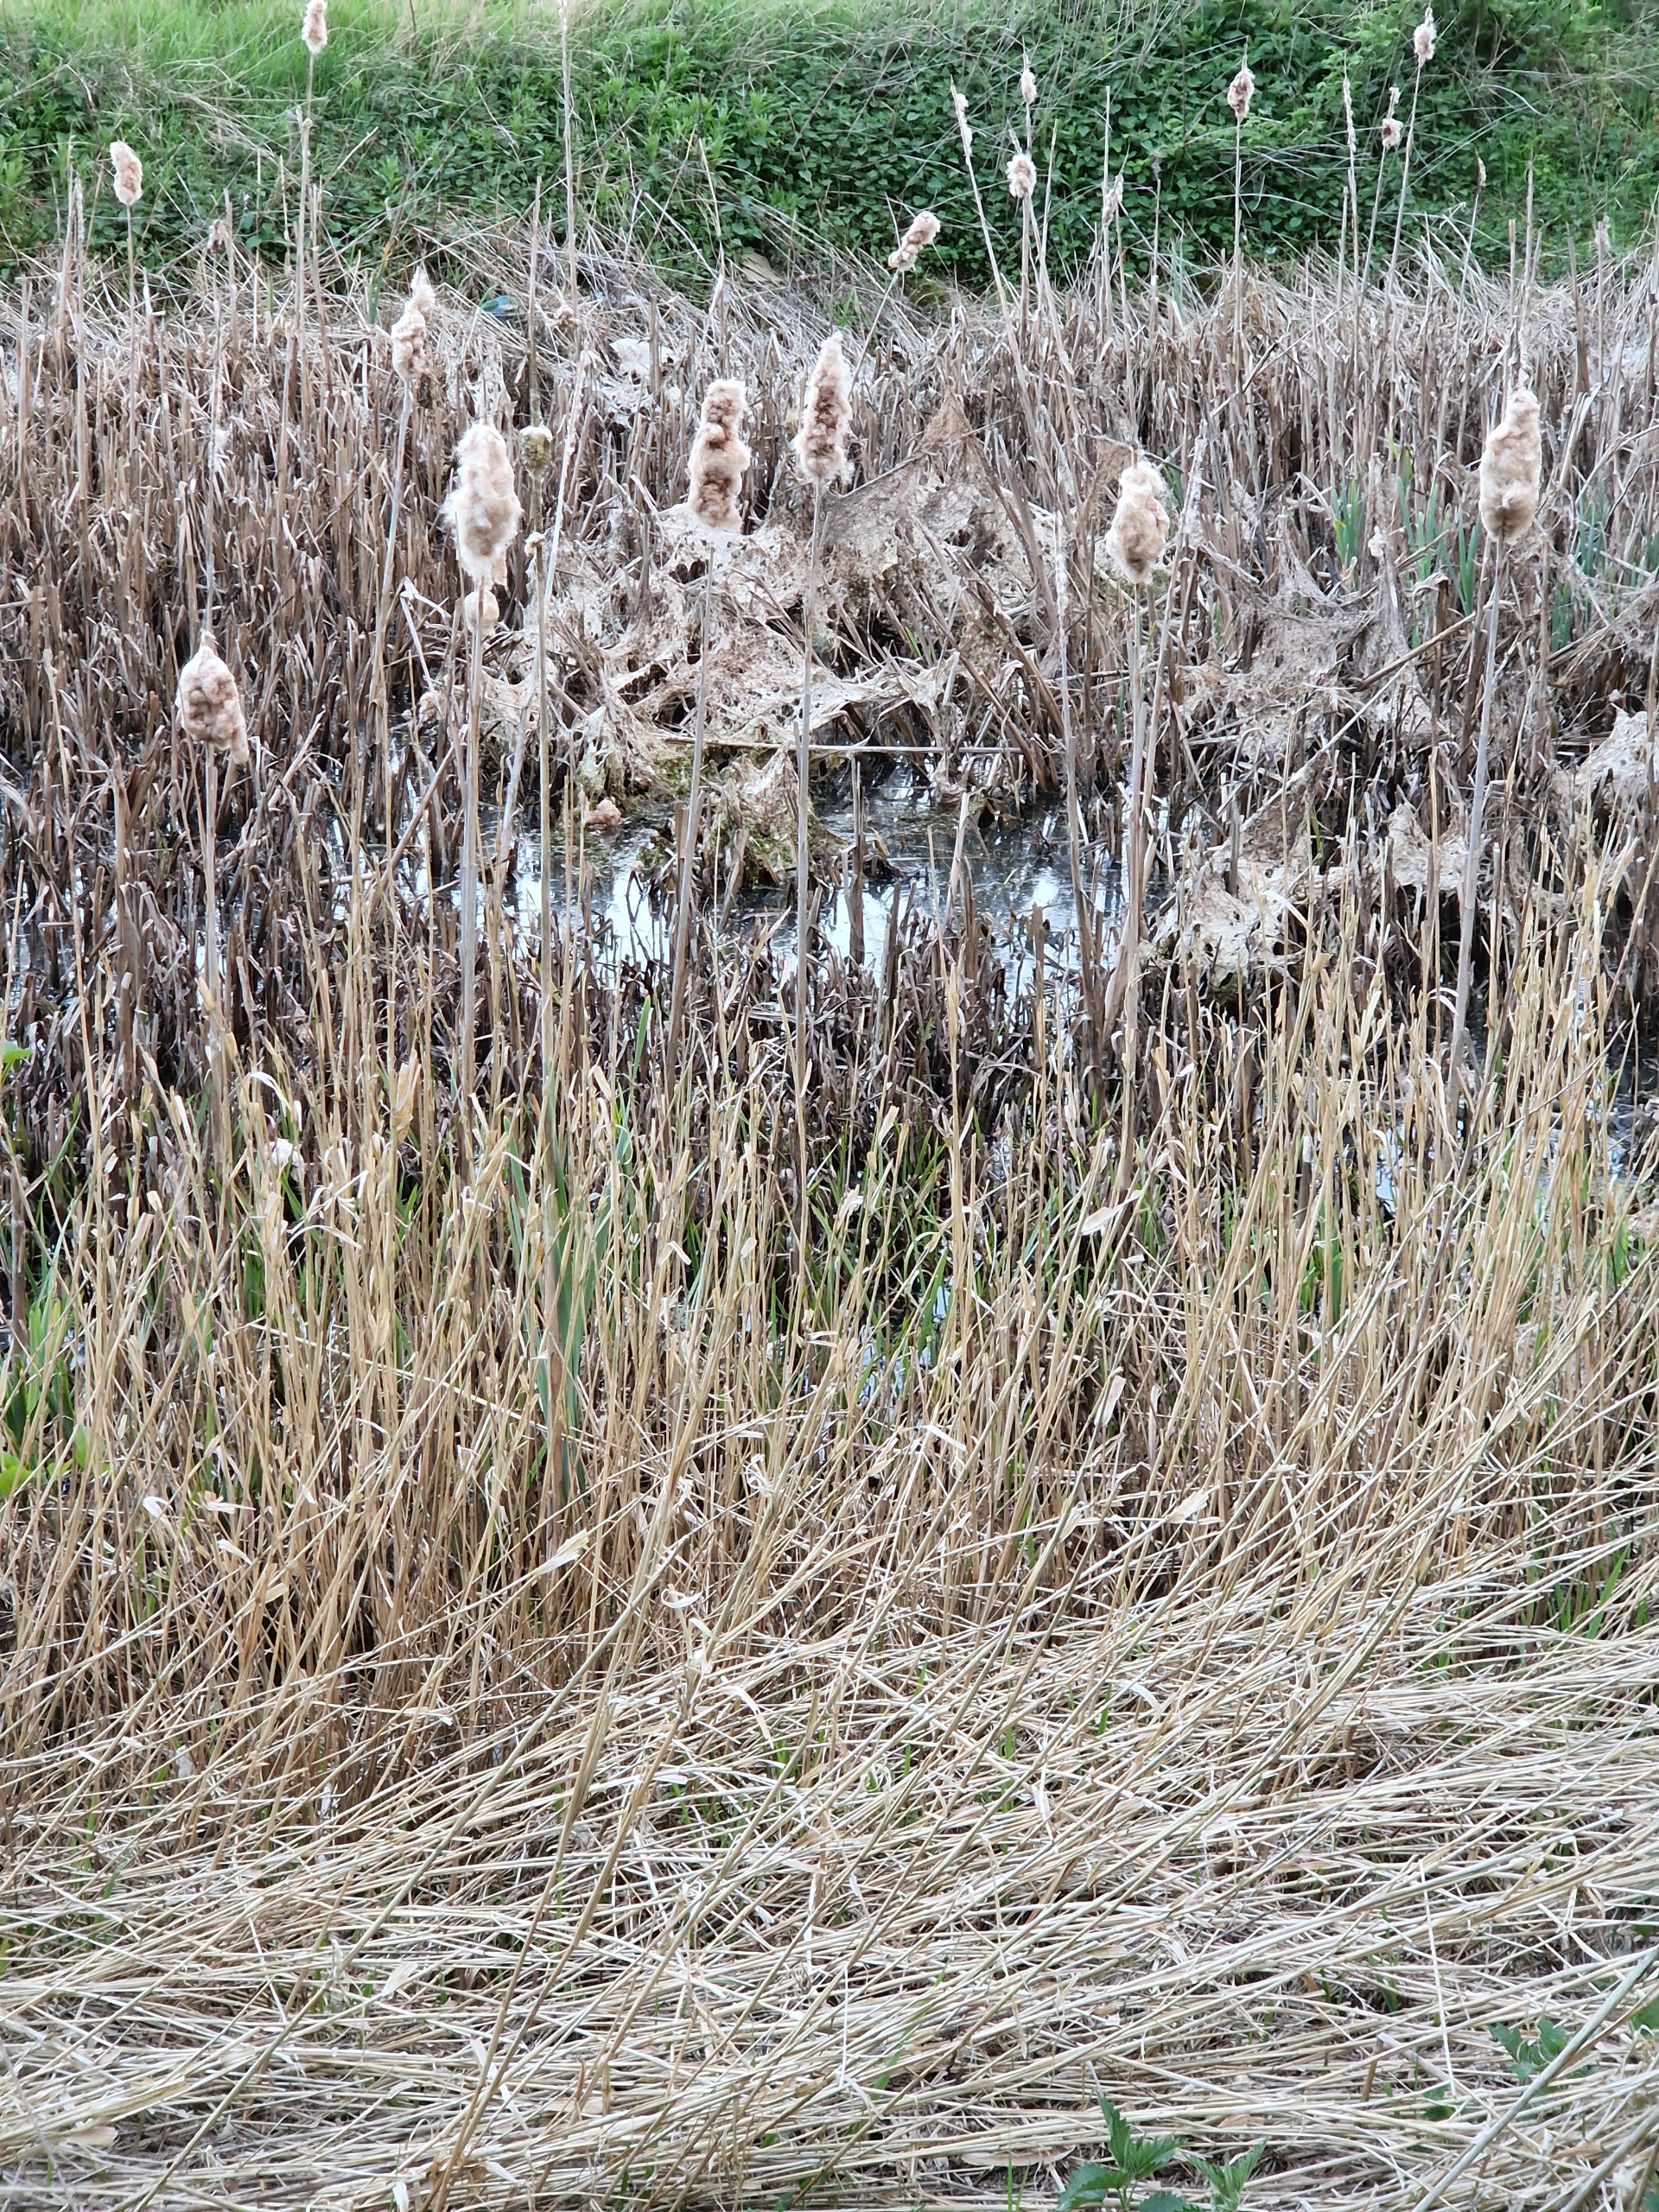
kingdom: Plantae
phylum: Tracheophyta
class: Liliopsida
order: Poales
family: Typhaceae
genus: Typha
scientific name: Typha latifolia
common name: Bredbladet dunhammer
